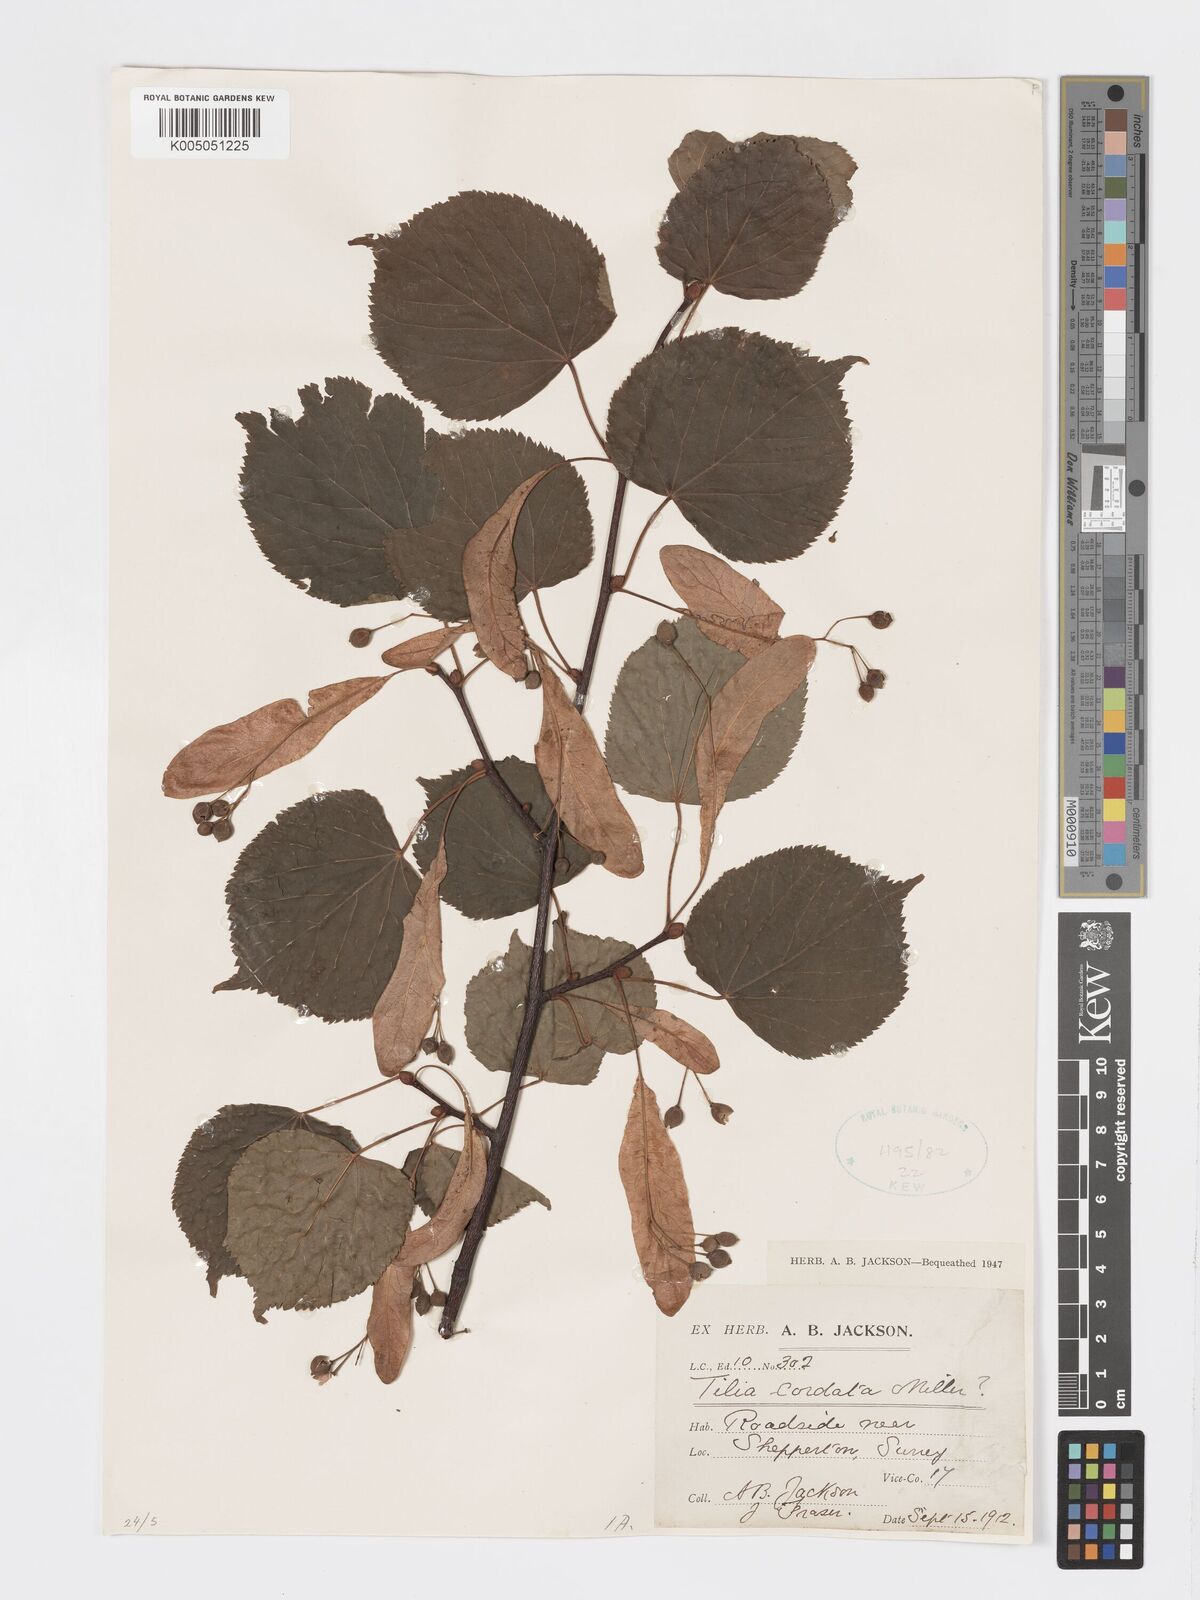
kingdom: Plantae
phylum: Tracheophyta
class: Magnoliopsida
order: Malvales
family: Malvaceae
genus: Tilia
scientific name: Tilia cordata
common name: Small-leaved lime
